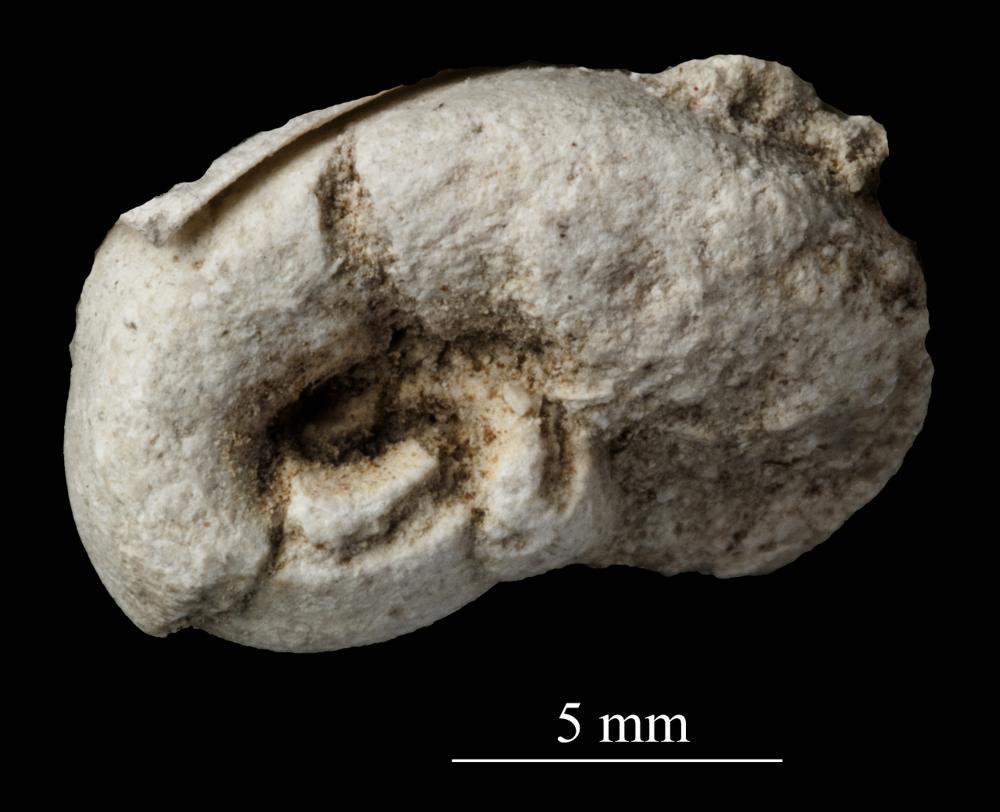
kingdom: Animalia
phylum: Mollusca
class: Gastropoda
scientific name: Gastropoda
